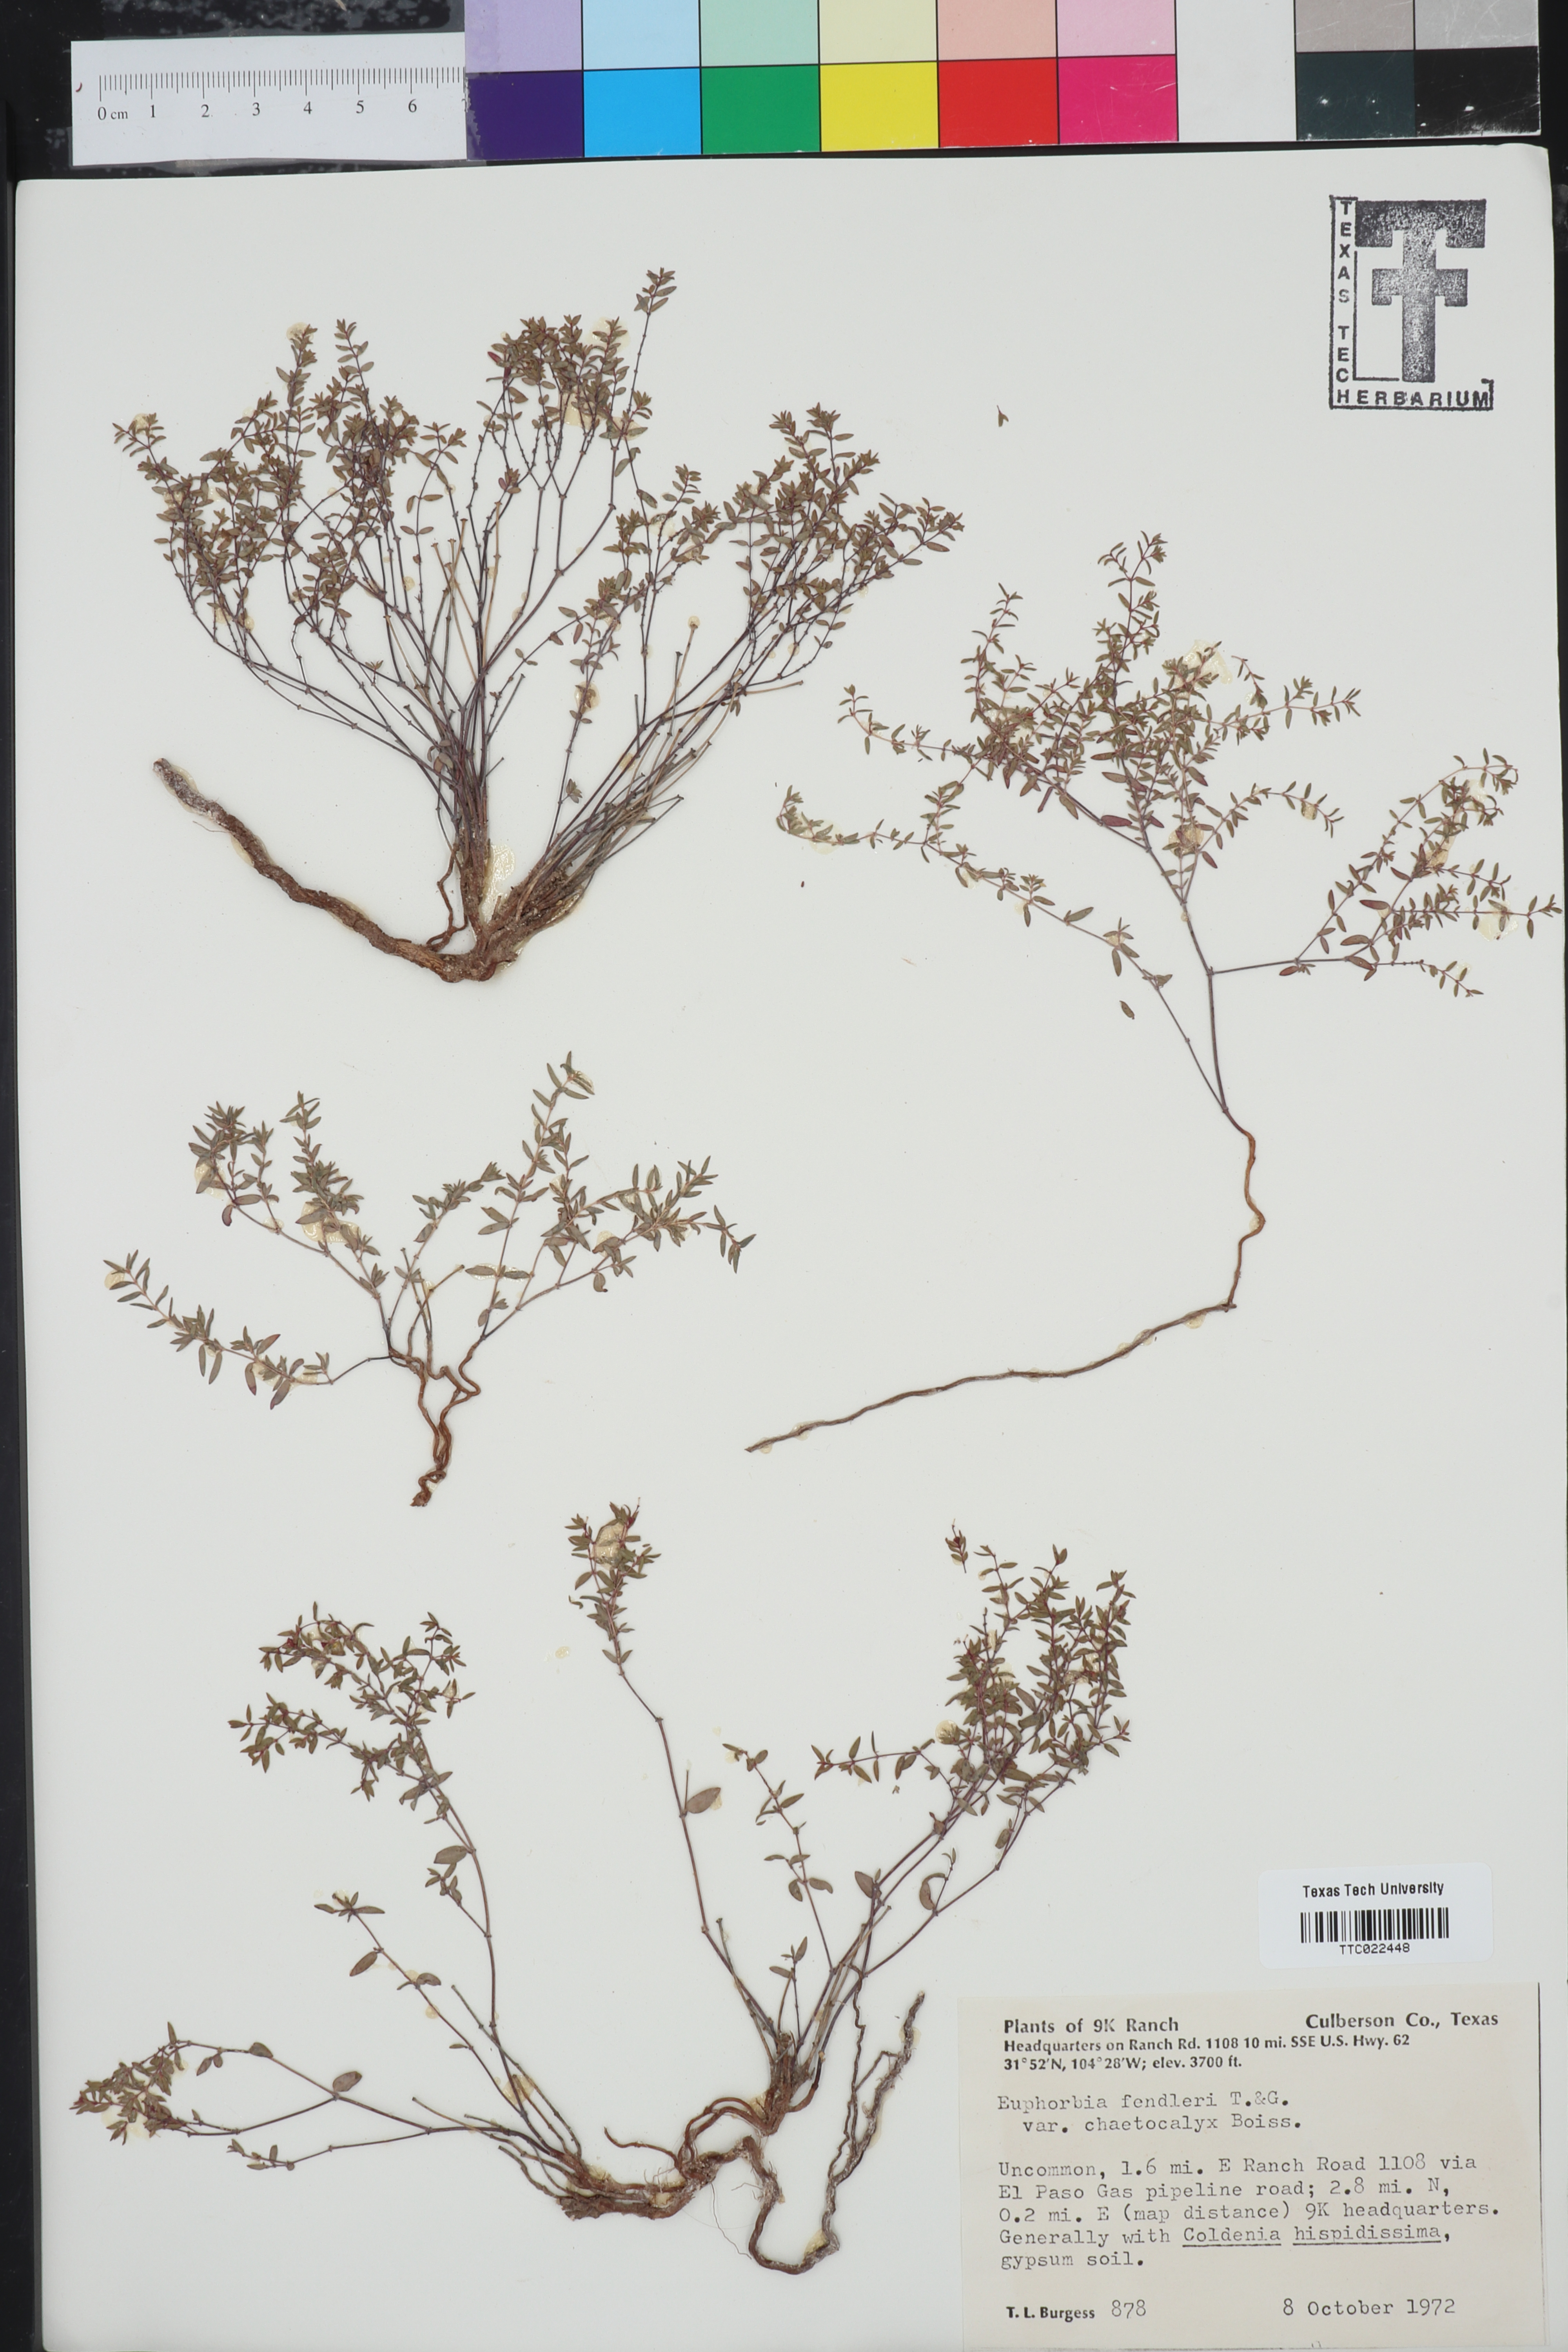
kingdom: Plantae
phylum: Tracheophyta
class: Magnoliopsida
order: Malpighiales
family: Euphorbiaceae
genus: Euphorbia
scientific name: Euphorbia chaetocalyx
